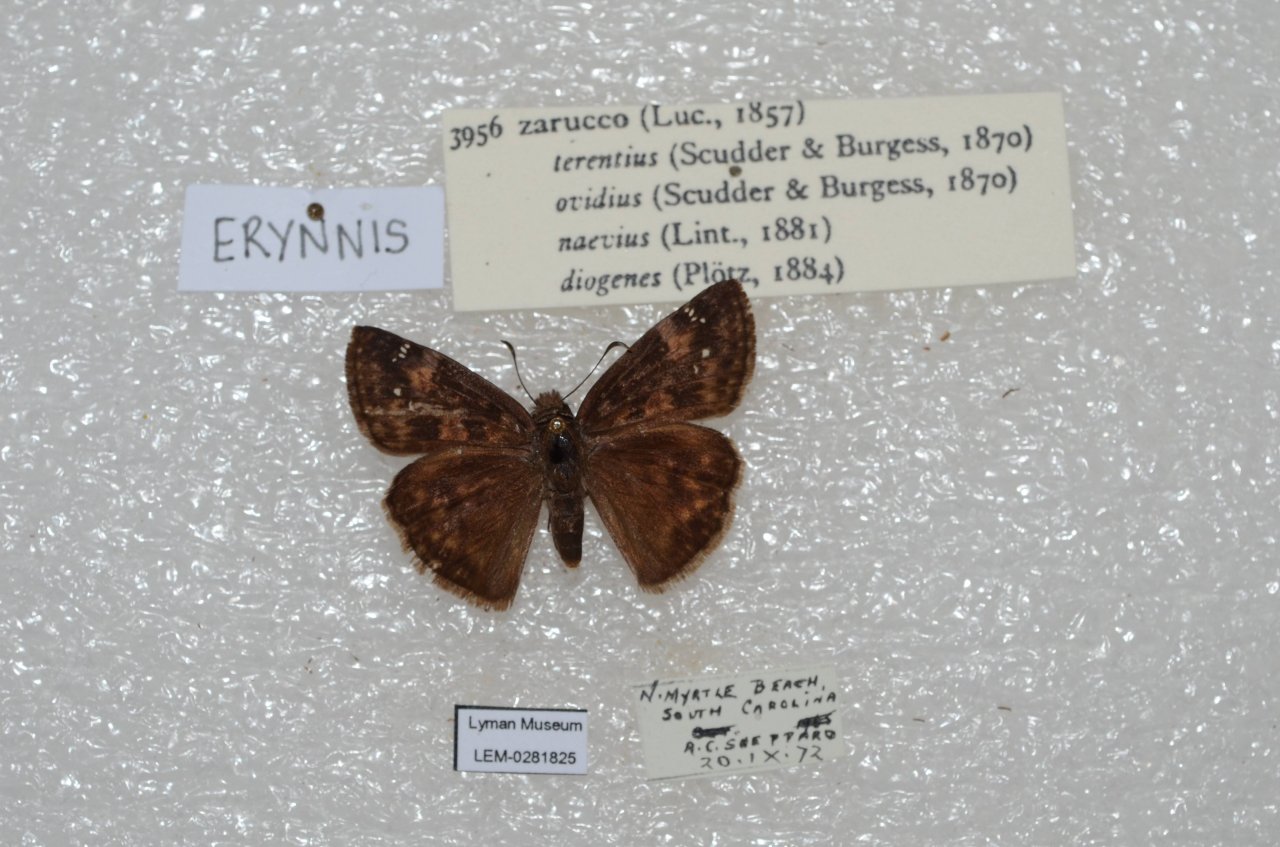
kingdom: Animalia
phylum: Arthropoda
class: Insecta
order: Lepidoptera
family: Hesperiidae
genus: Erynnis
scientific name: Erynnis zarucco
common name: Zarucco Duskywing
